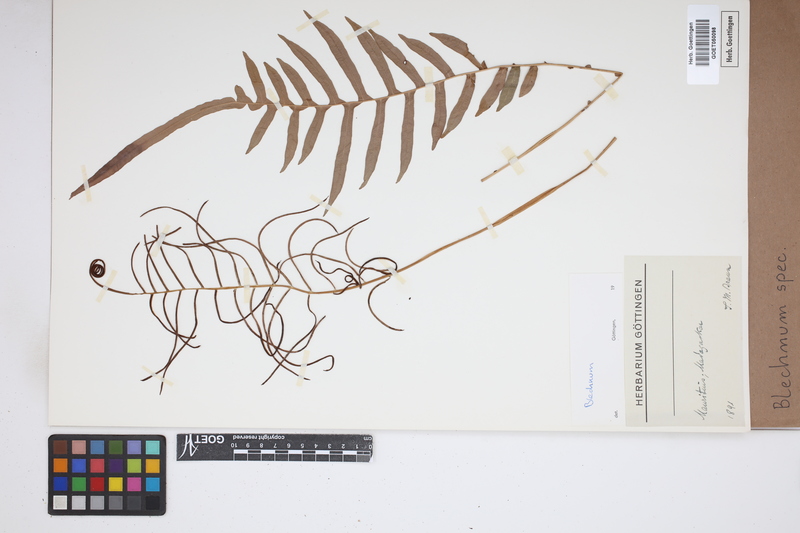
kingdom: Plantae
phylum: Tracheophyta
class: Polypodiopsida
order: Polypodiales
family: Blechnaceae
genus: Blechnum
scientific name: Blechnum
